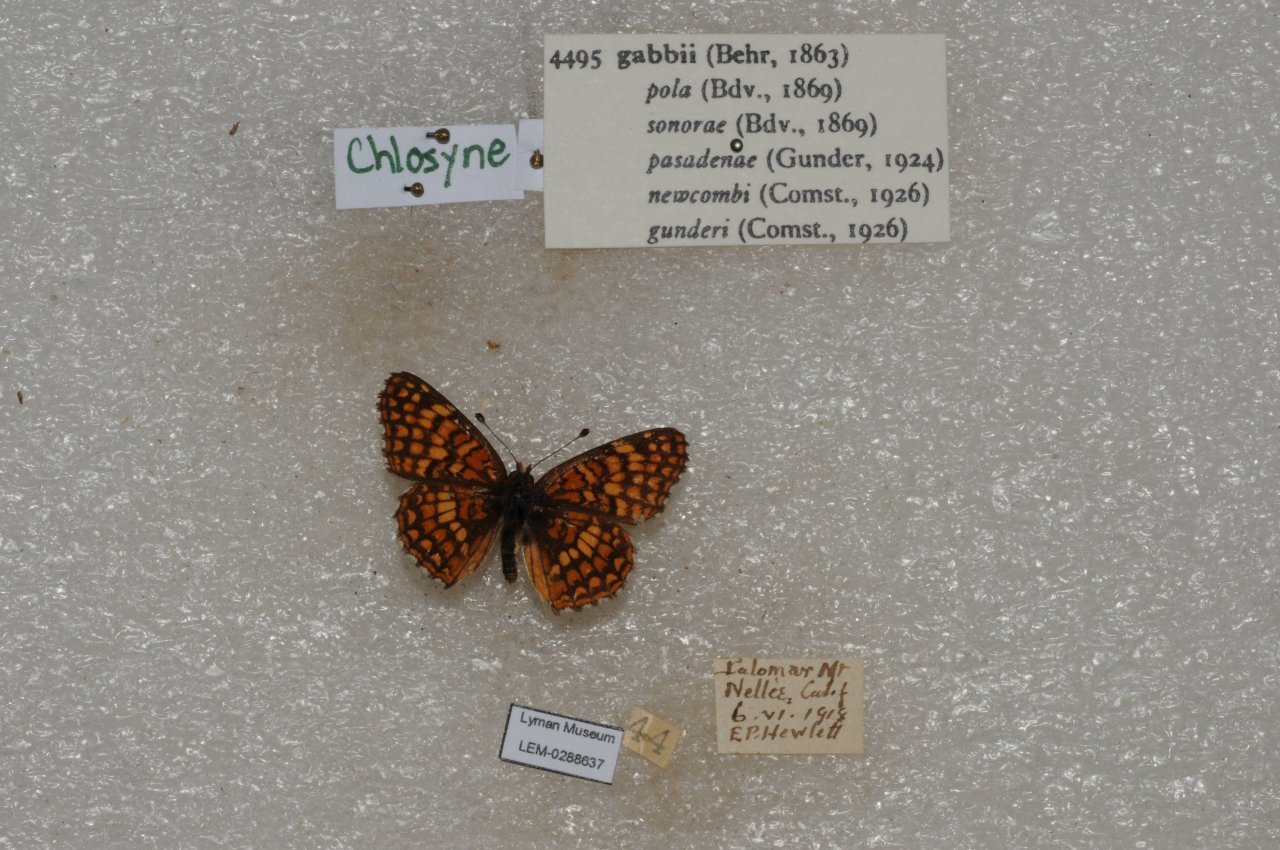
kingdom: Animalia
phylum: Arthropoda
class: Insecta
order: Lepidoptera
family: Nymphalidae
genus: Chlosyne
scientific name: Chlosyne gabbii
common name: Gabb's Checkerspot
